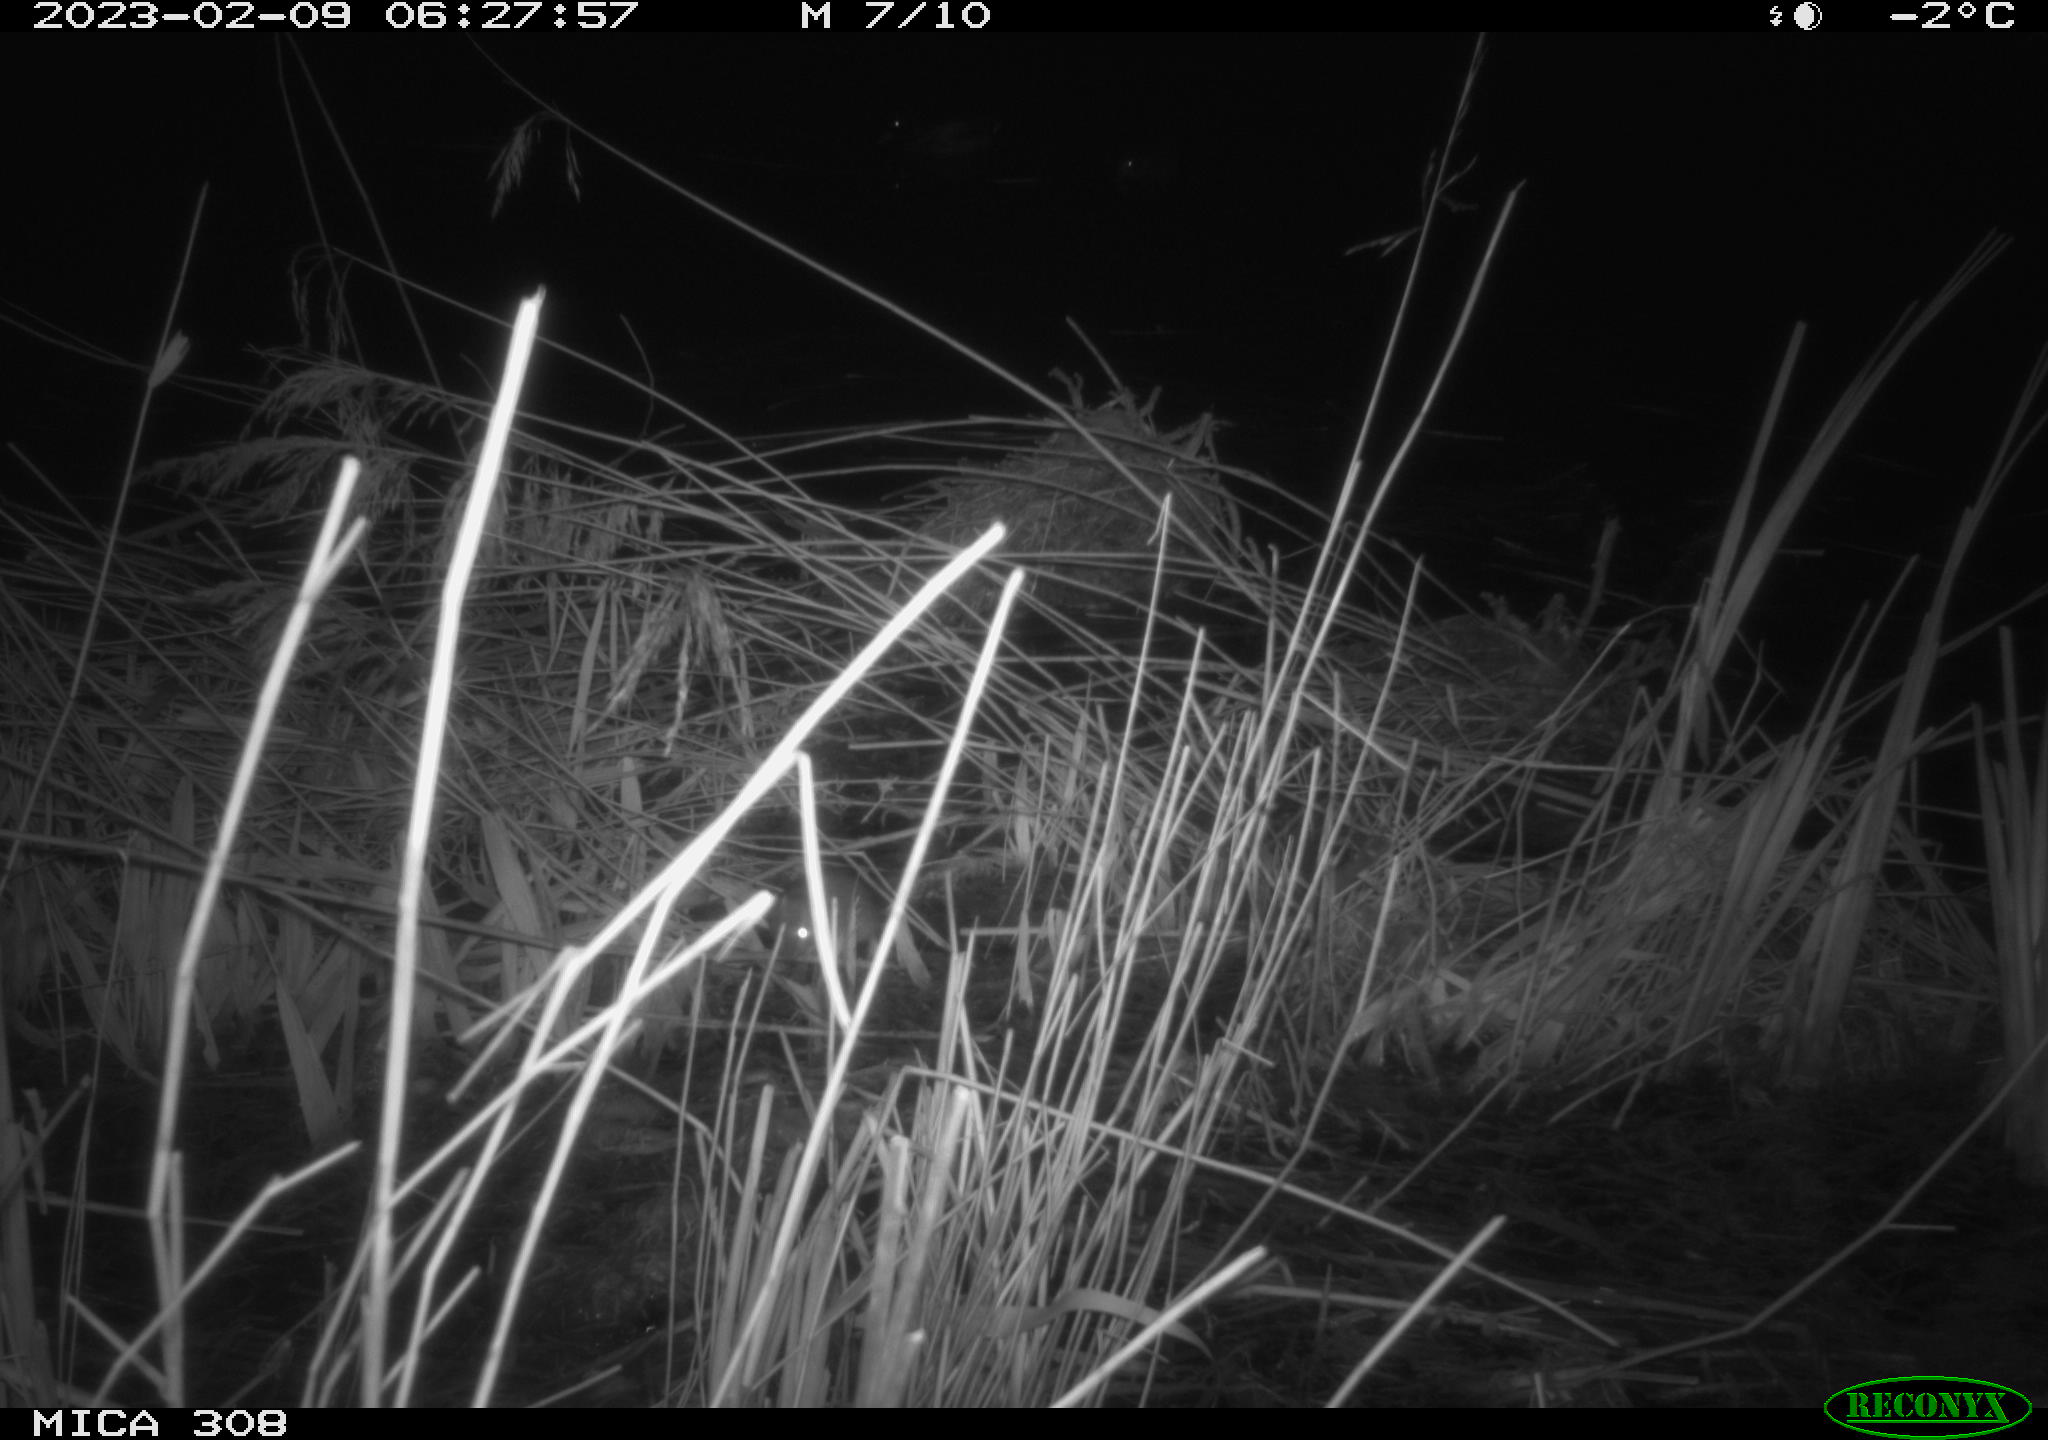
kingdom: Animalia
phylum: Chordata
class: Mammalia
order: Rodentia
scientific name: Rodentia
